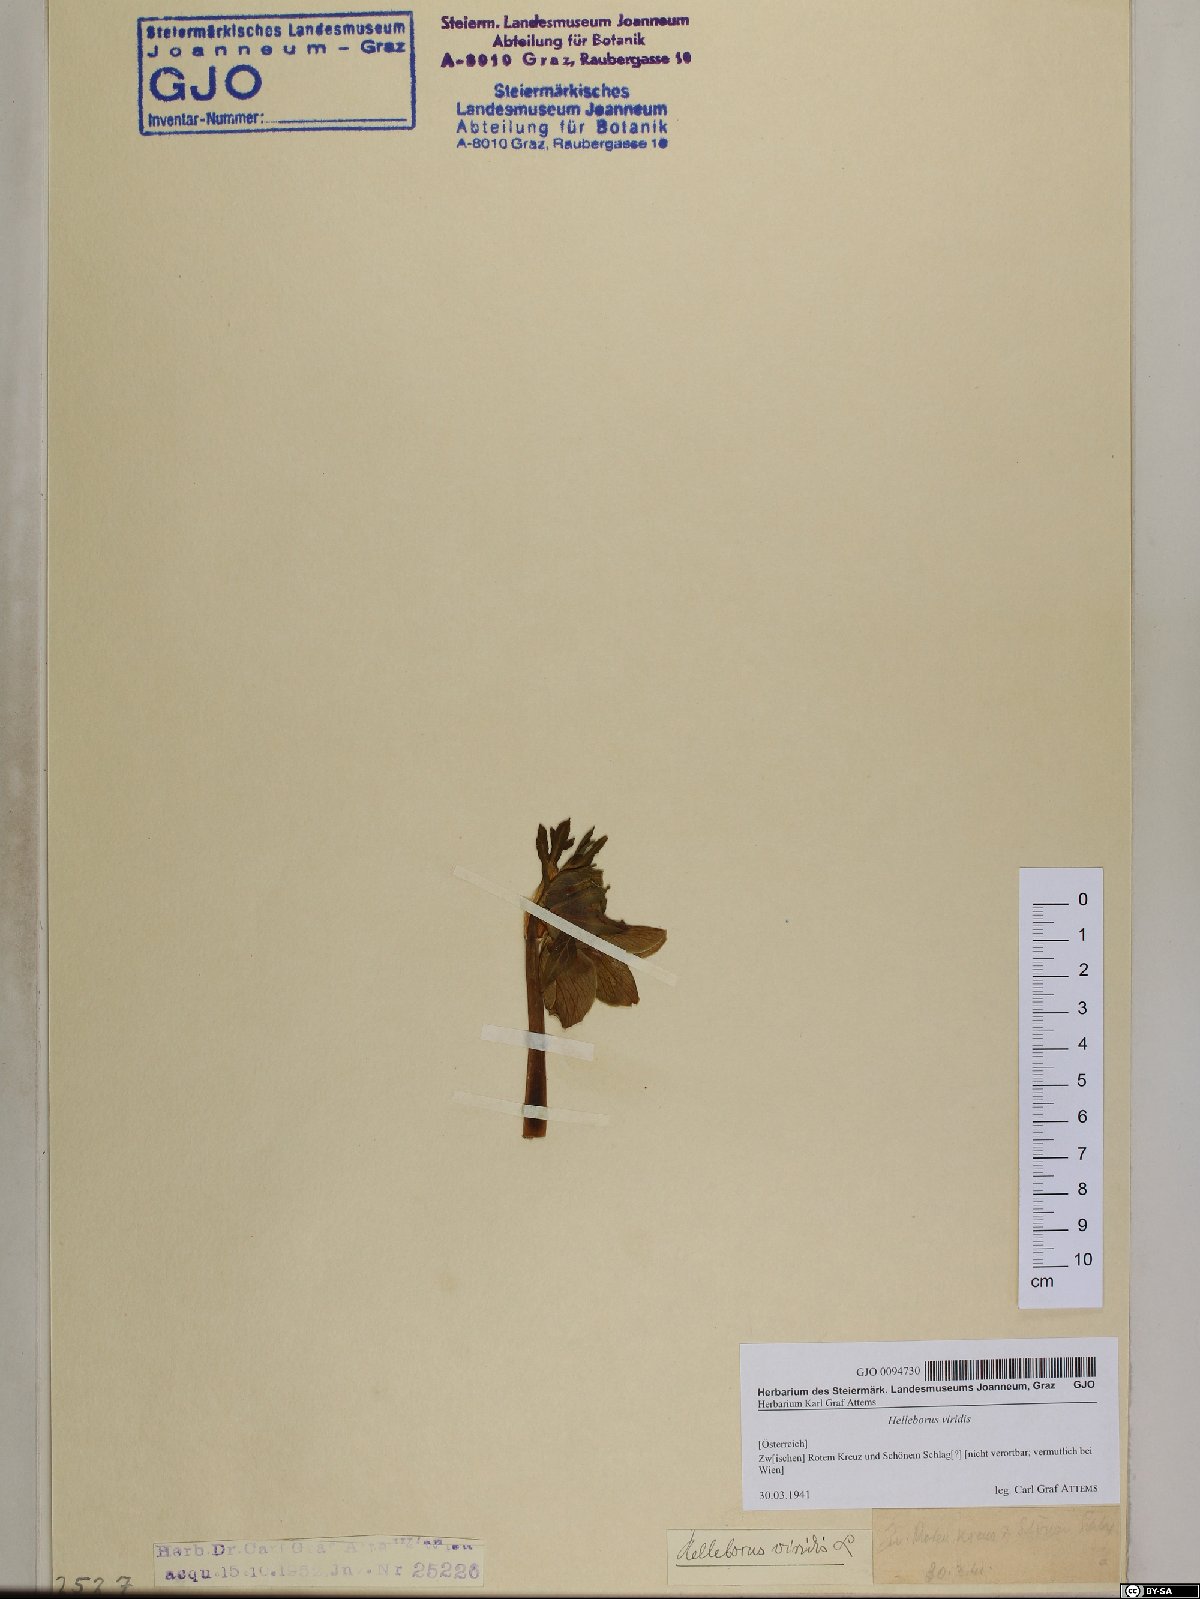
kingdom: Plantae
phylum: Tracheophyta
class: Magnoliopsida
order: Ranunculales
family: Ranunculaceae
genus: Helleborus
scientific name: Helleborus viridis
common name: Green hellebore
